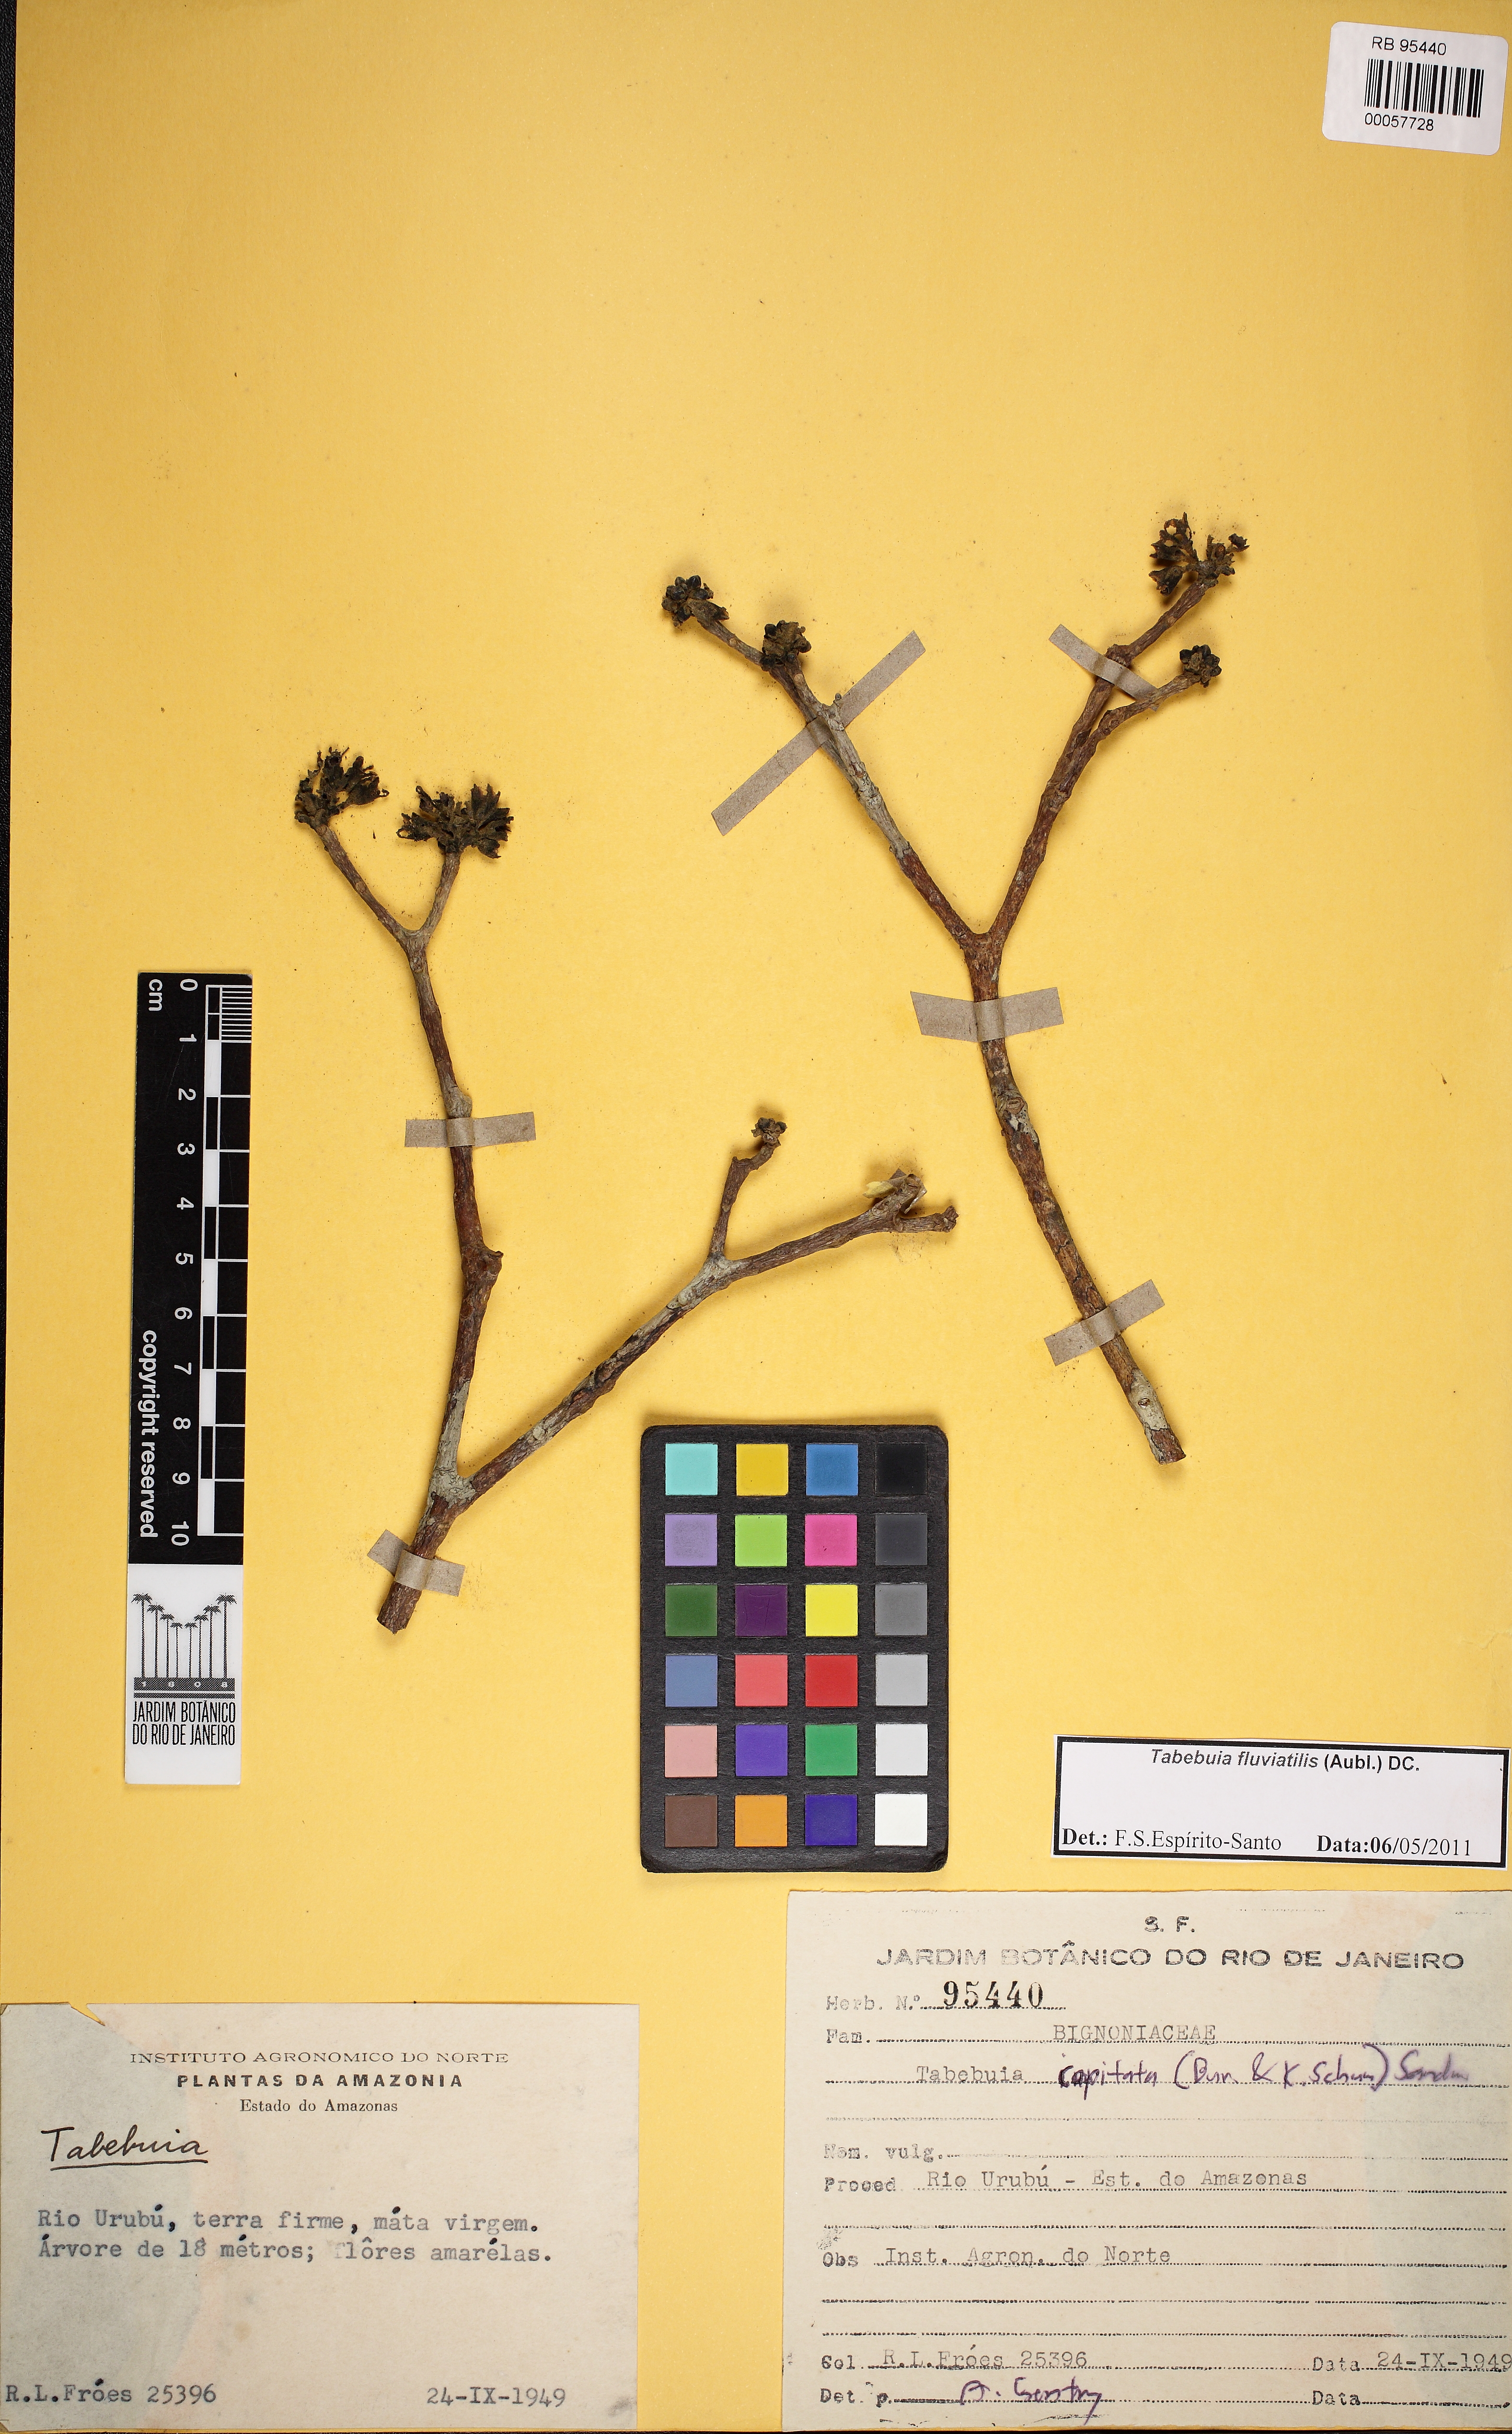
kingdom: Plantae
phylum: Tracheophyta
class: Magnoliopsida
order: Lamiales
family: Bignoniaceae
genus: Tabebuia
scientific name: Tabebuia fluviatilis
